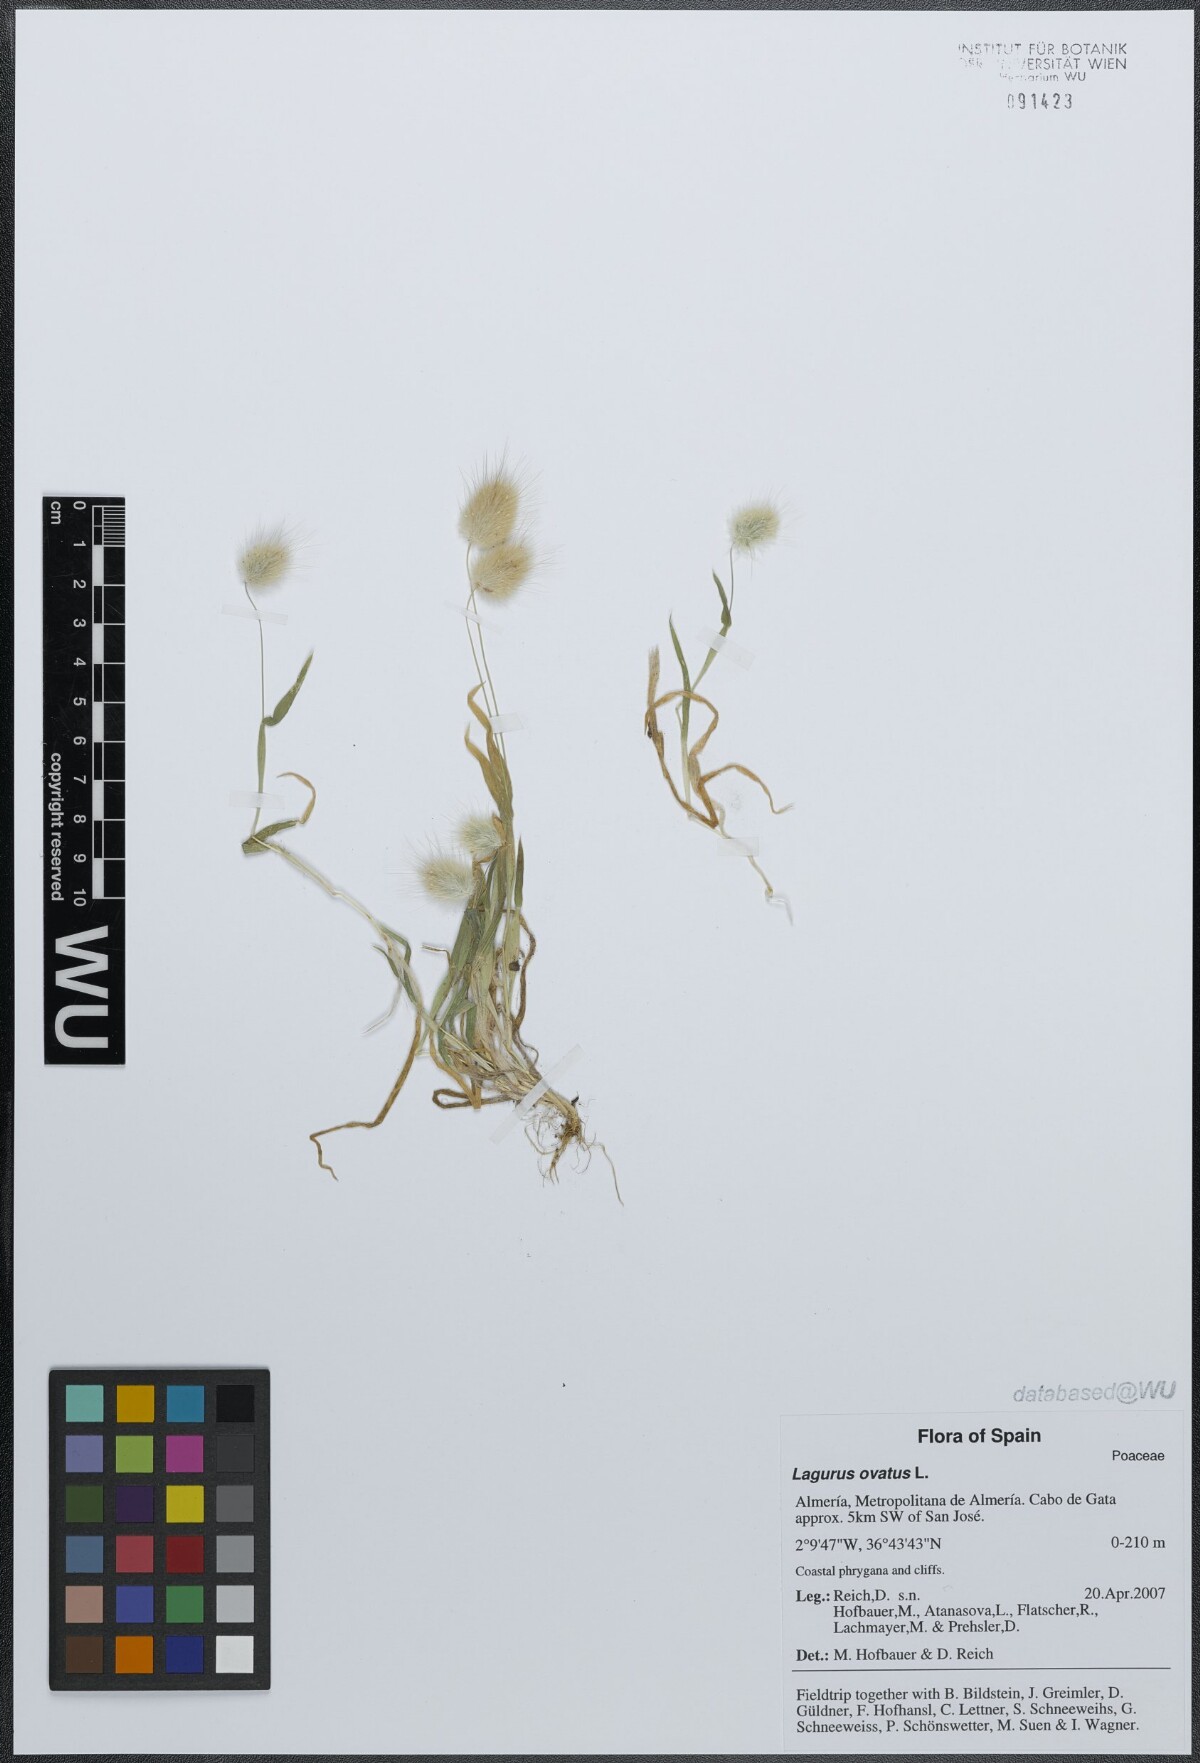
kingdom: Plantae
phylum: Tracheophyta
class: Liliopsida
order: Poales
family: Poaceae
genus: Lagurus
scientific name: Lagurus ovatus
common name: Hare's-tail
